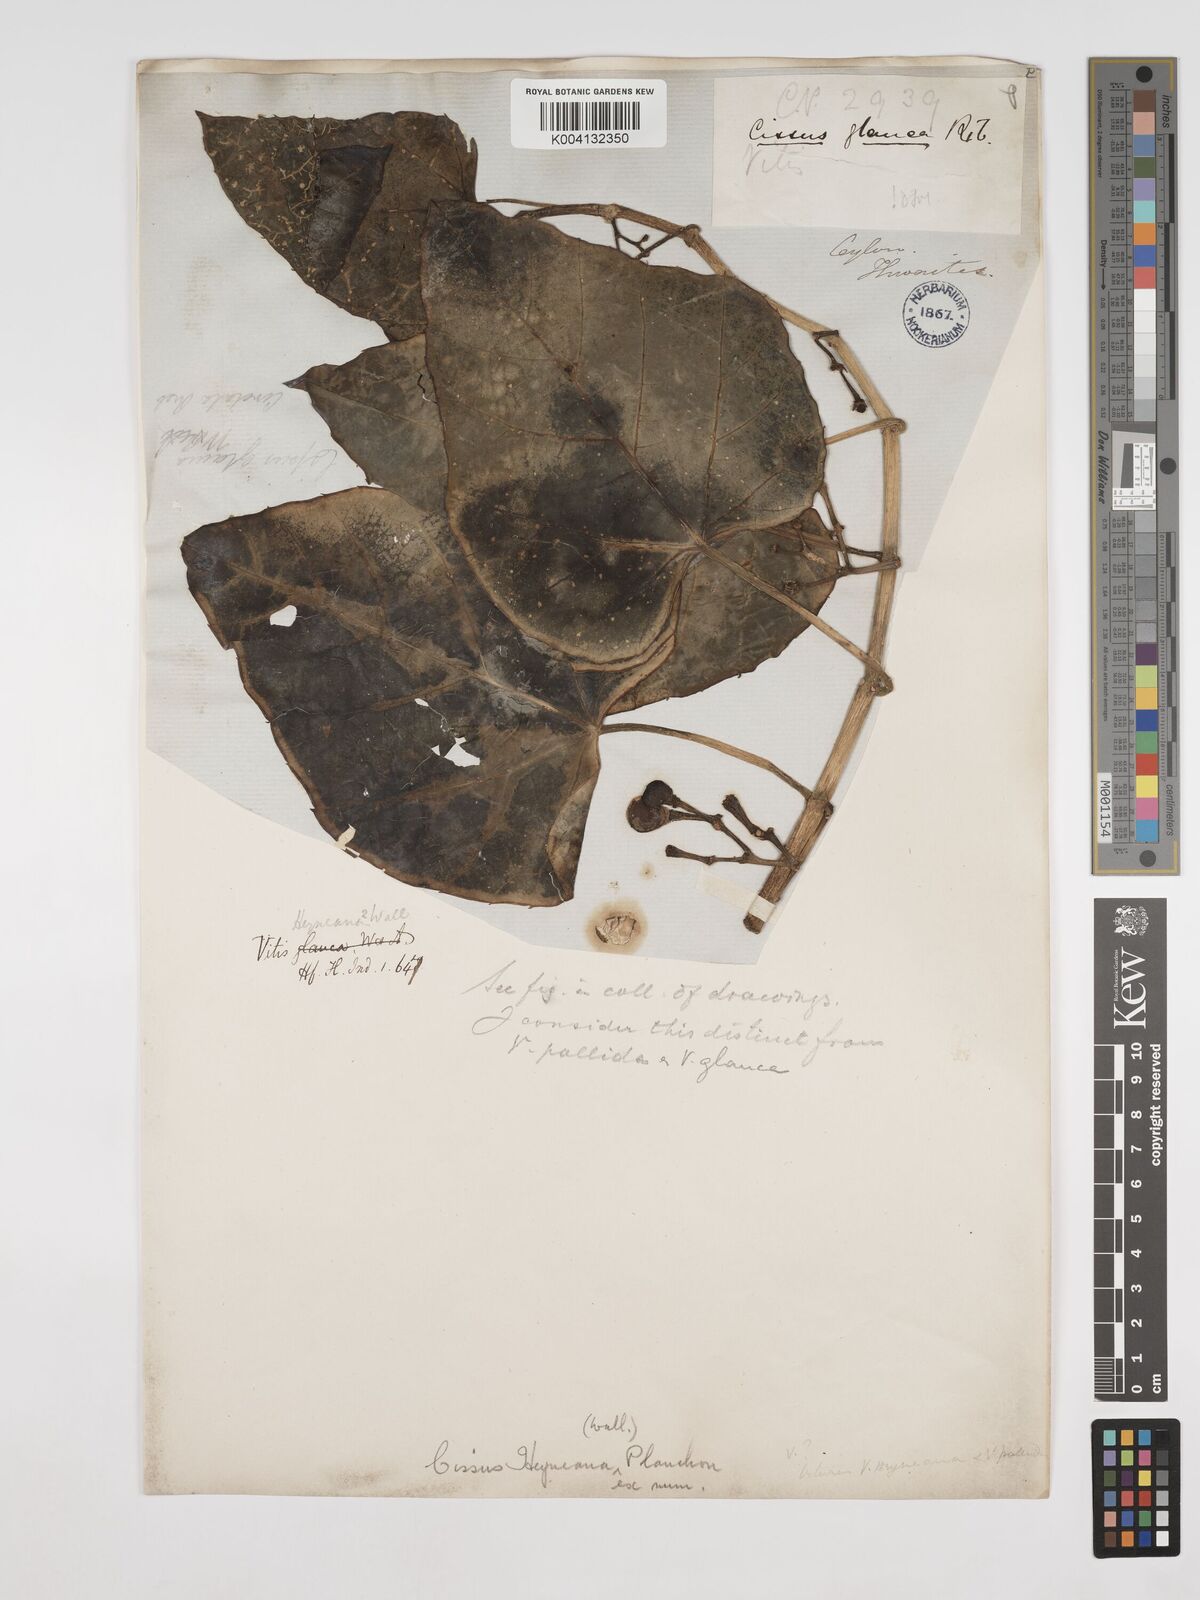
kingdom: Plantae
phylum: Tracheophyta
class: Magnoliopsida
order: Vitales
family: Vitaceae
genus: Cissus
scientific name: Cissus heyneana
